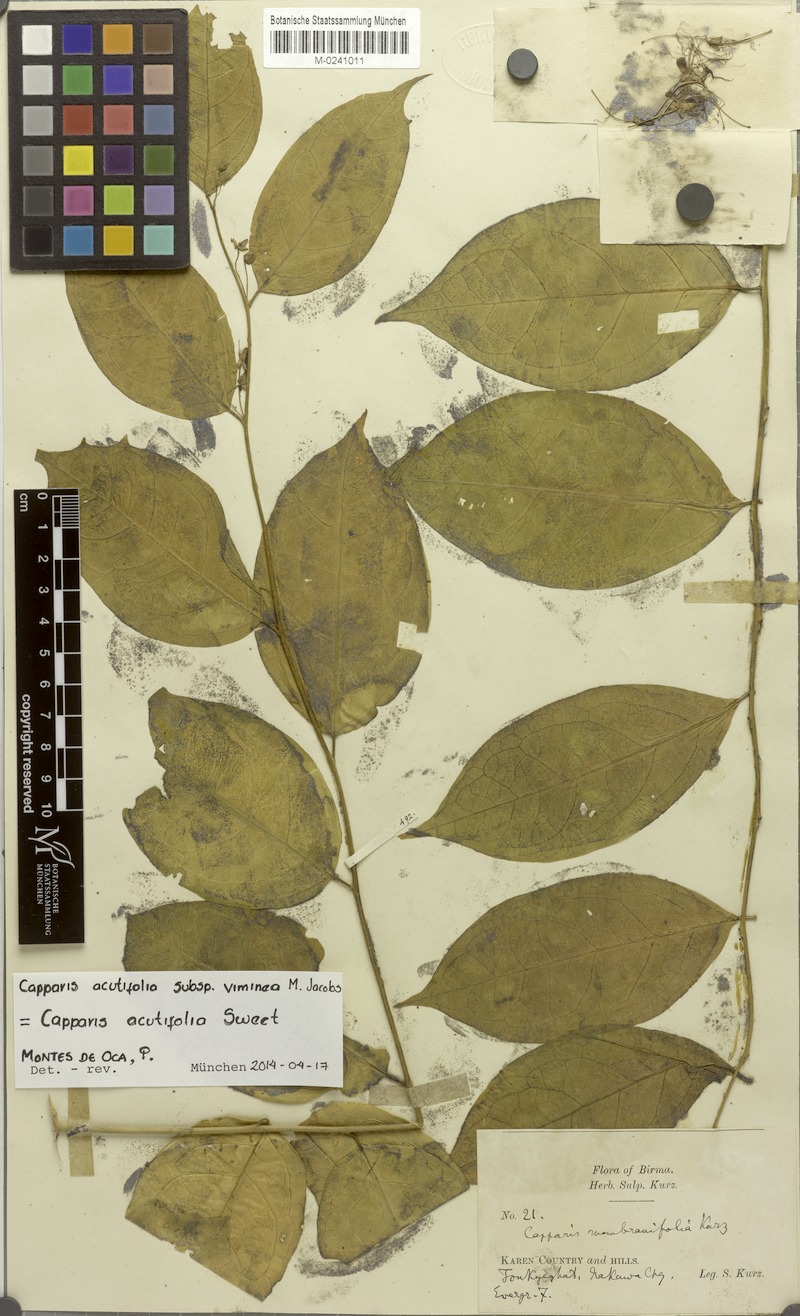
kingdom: Plantae
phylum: Tracheophyta
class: Magnoliopsida
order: Brassicales
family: Capparaceae
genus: Capparis
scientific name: Capparis acutifolia
